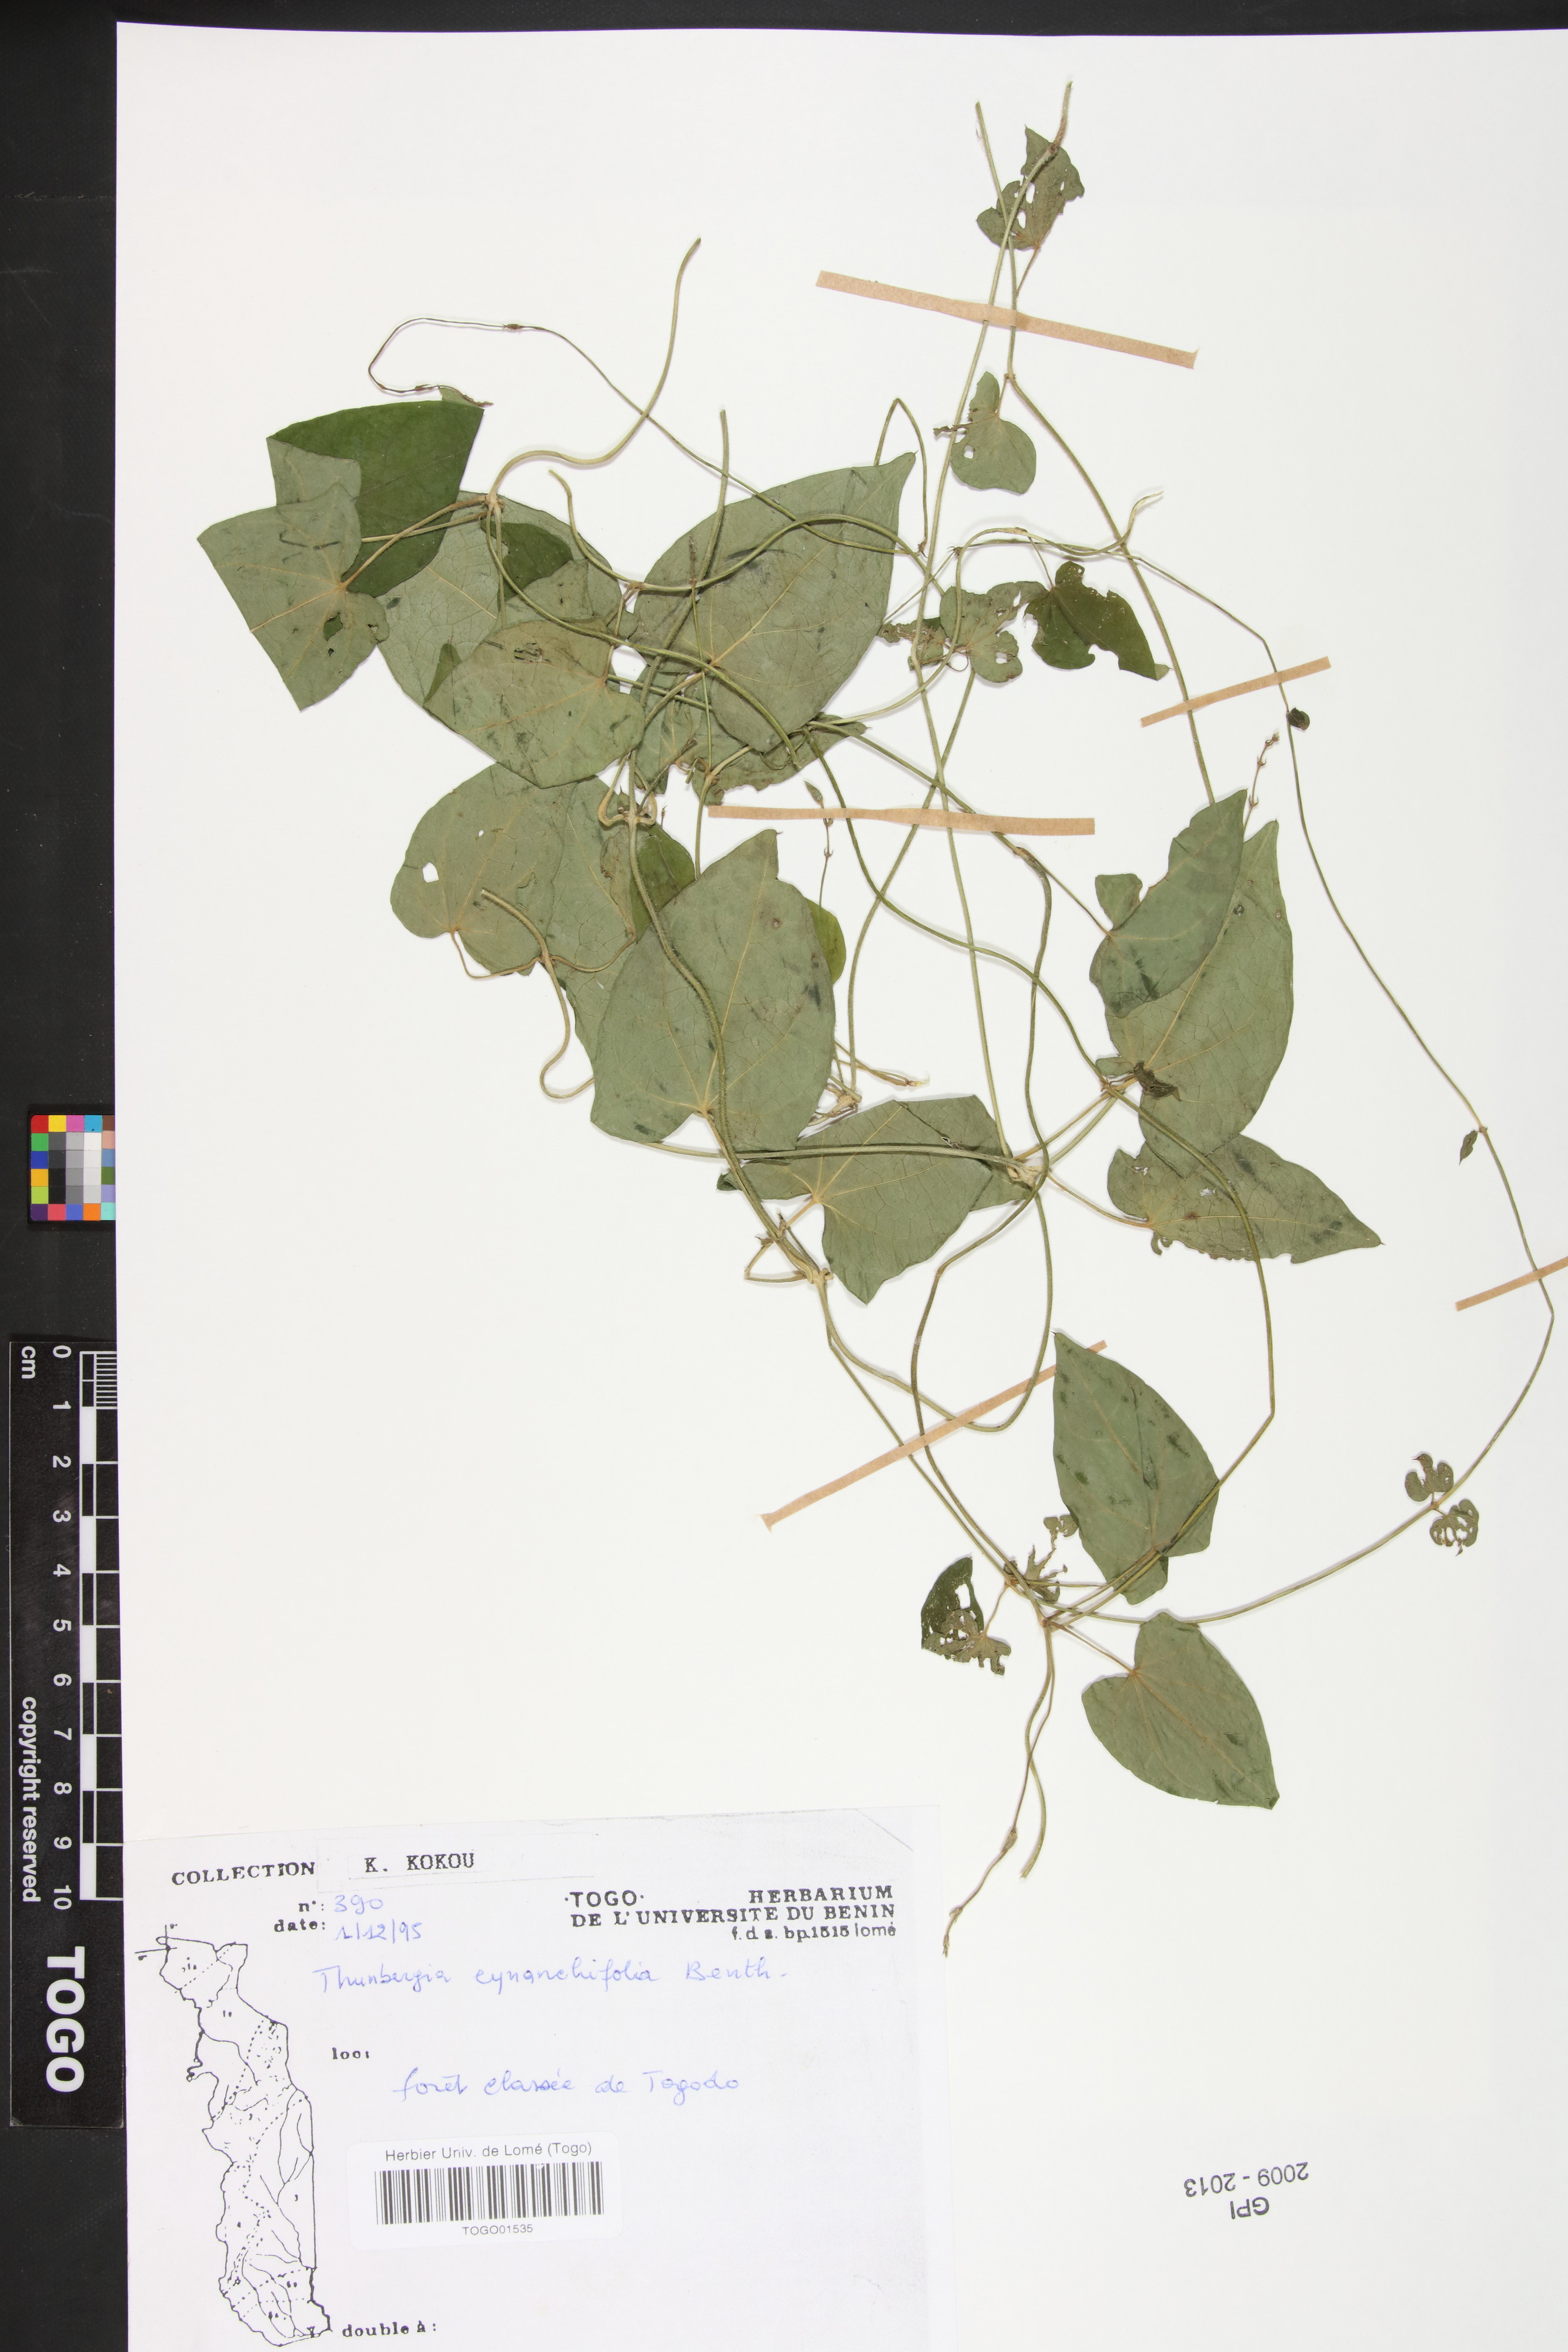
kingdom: Plantae
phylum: Tracheophyta
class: Magnoliopsida
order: Lamiales
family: Acanthaceae
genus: Thunbergia
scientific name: Thunbergia cynanchifolia
